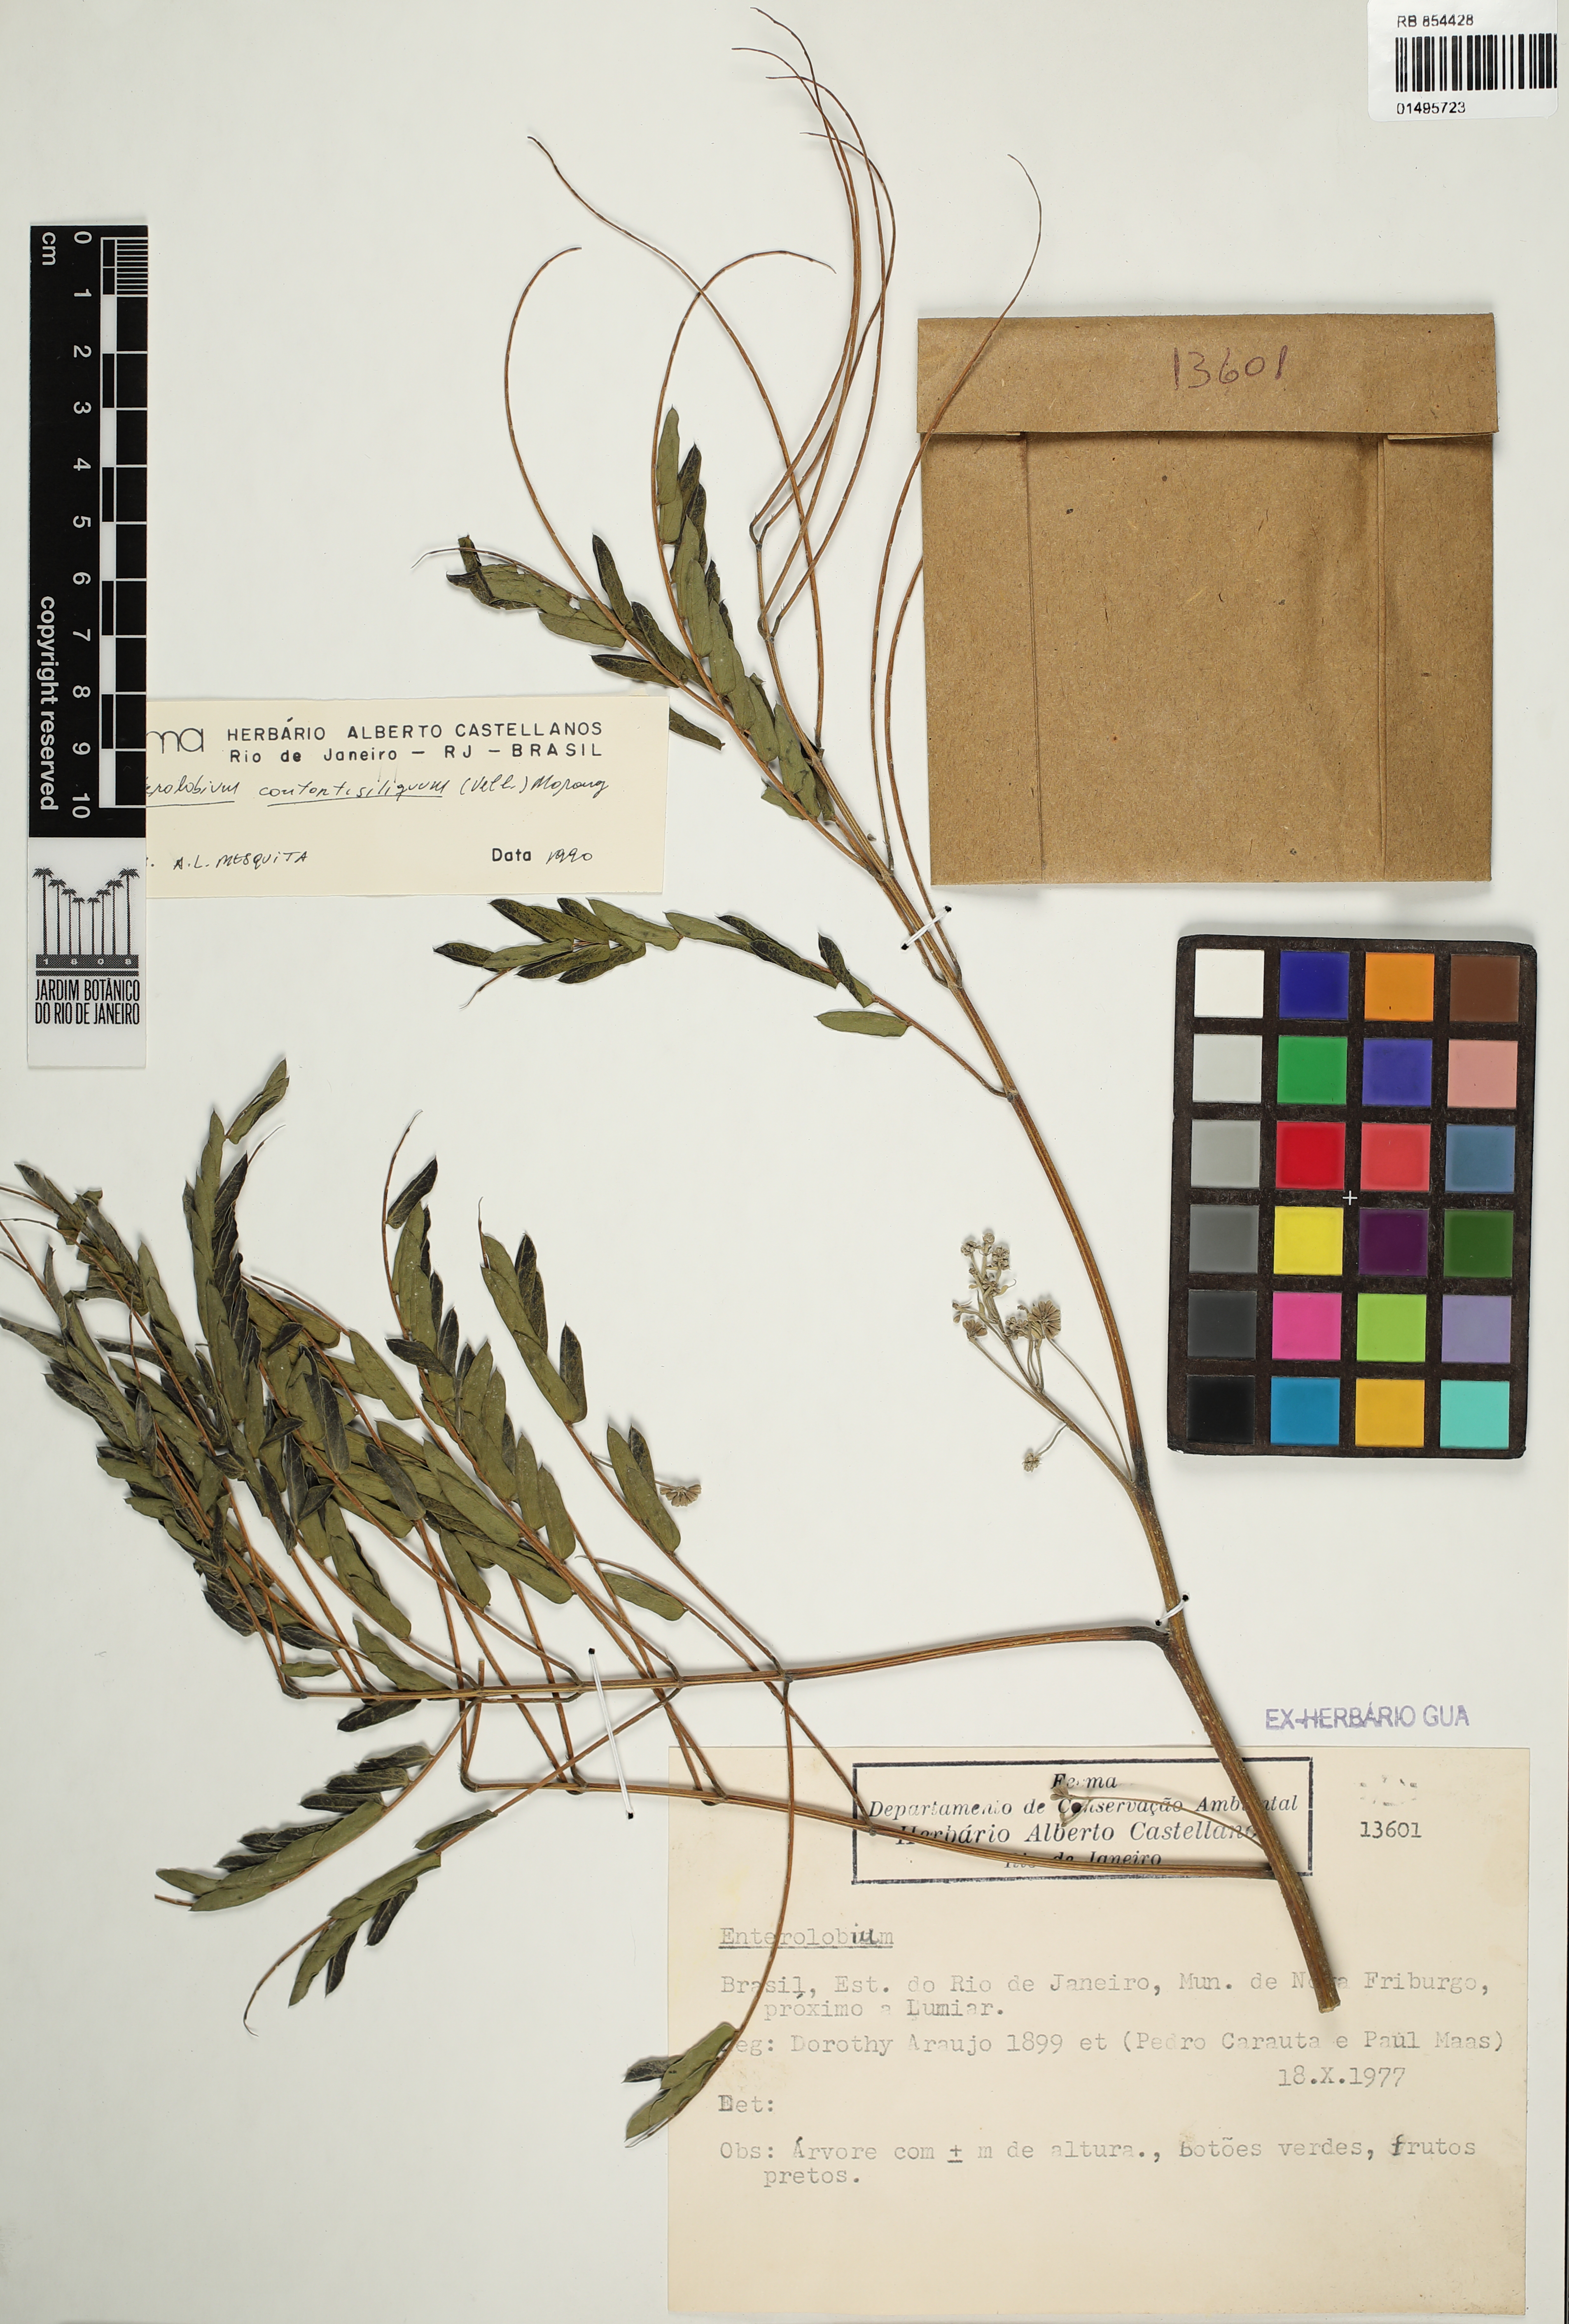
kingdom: Plantae
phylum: Tracheophyta
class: Magnoliopsida
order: Fabales
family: Fabaceae
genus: Enterolobium
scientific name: Enterolobium contortisiliquum
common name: Pacara earpod tree
